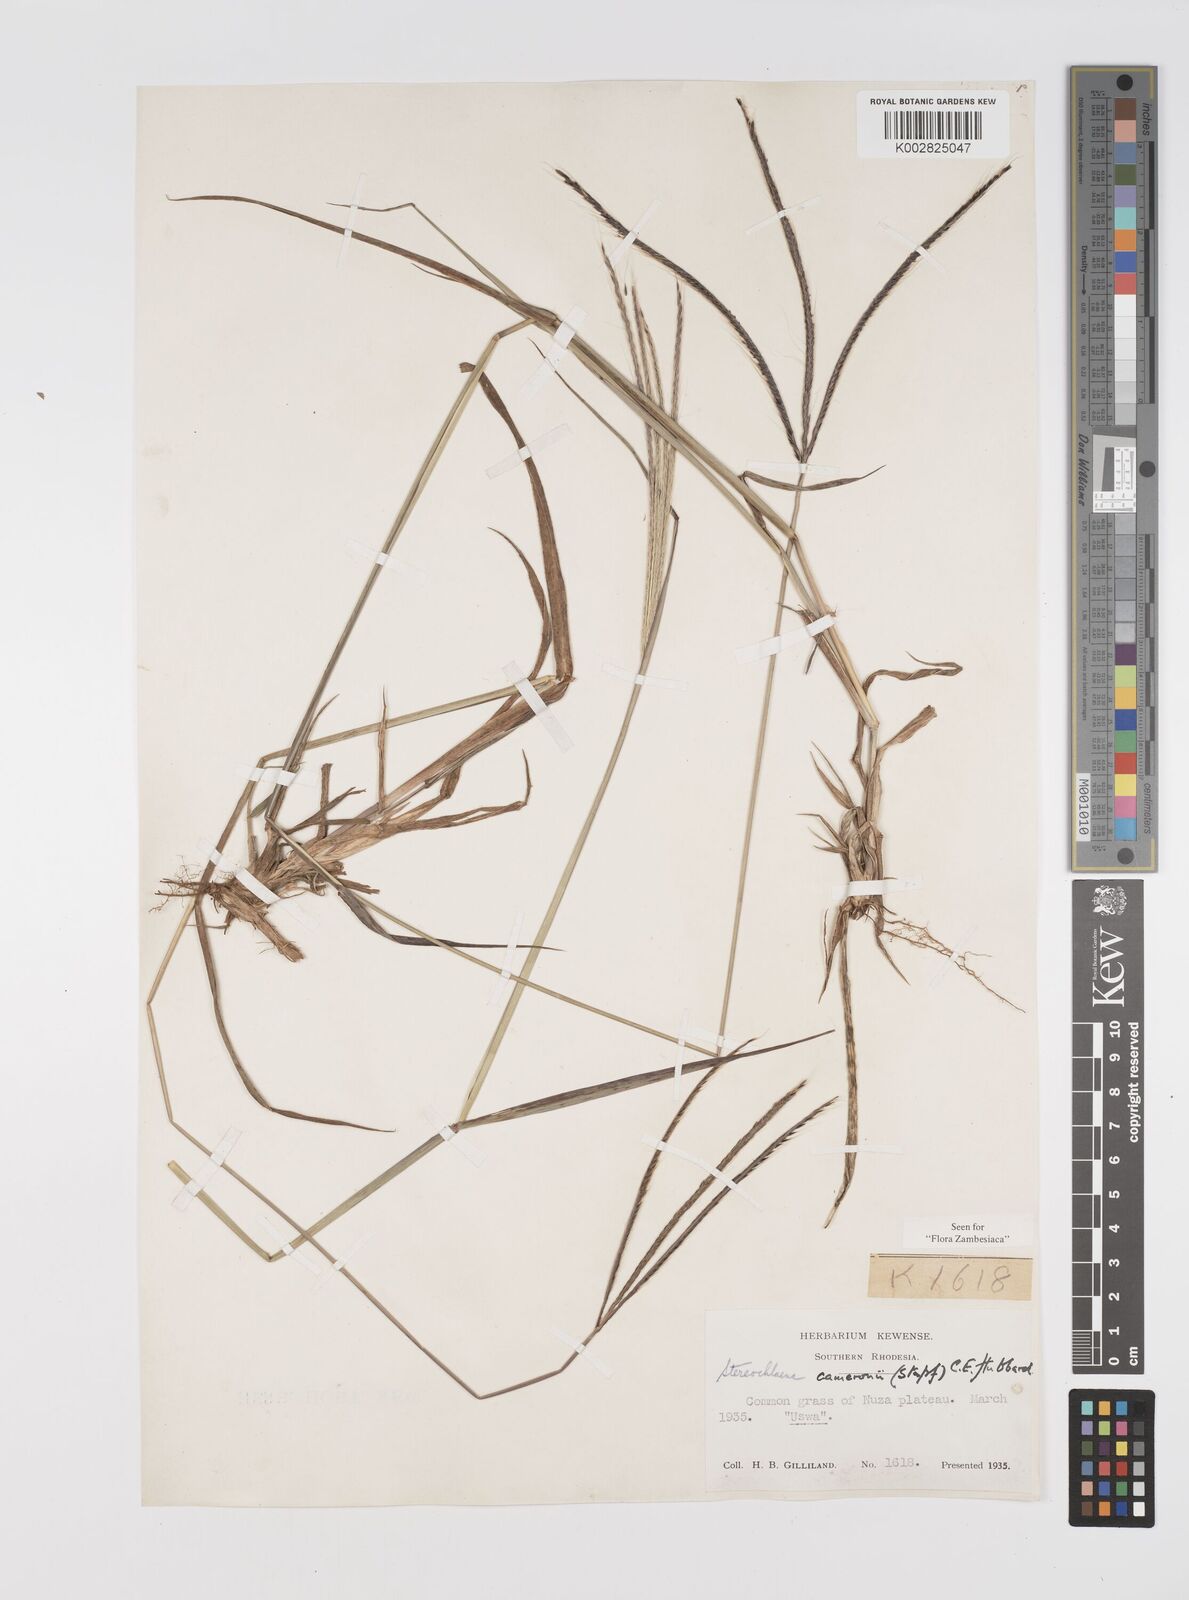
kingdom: Plantae
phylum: Tracheophyta
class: Liliopsida
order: Poales
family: Poaceae
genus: Stereochlaena
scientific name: Stereochlaena cameronii
